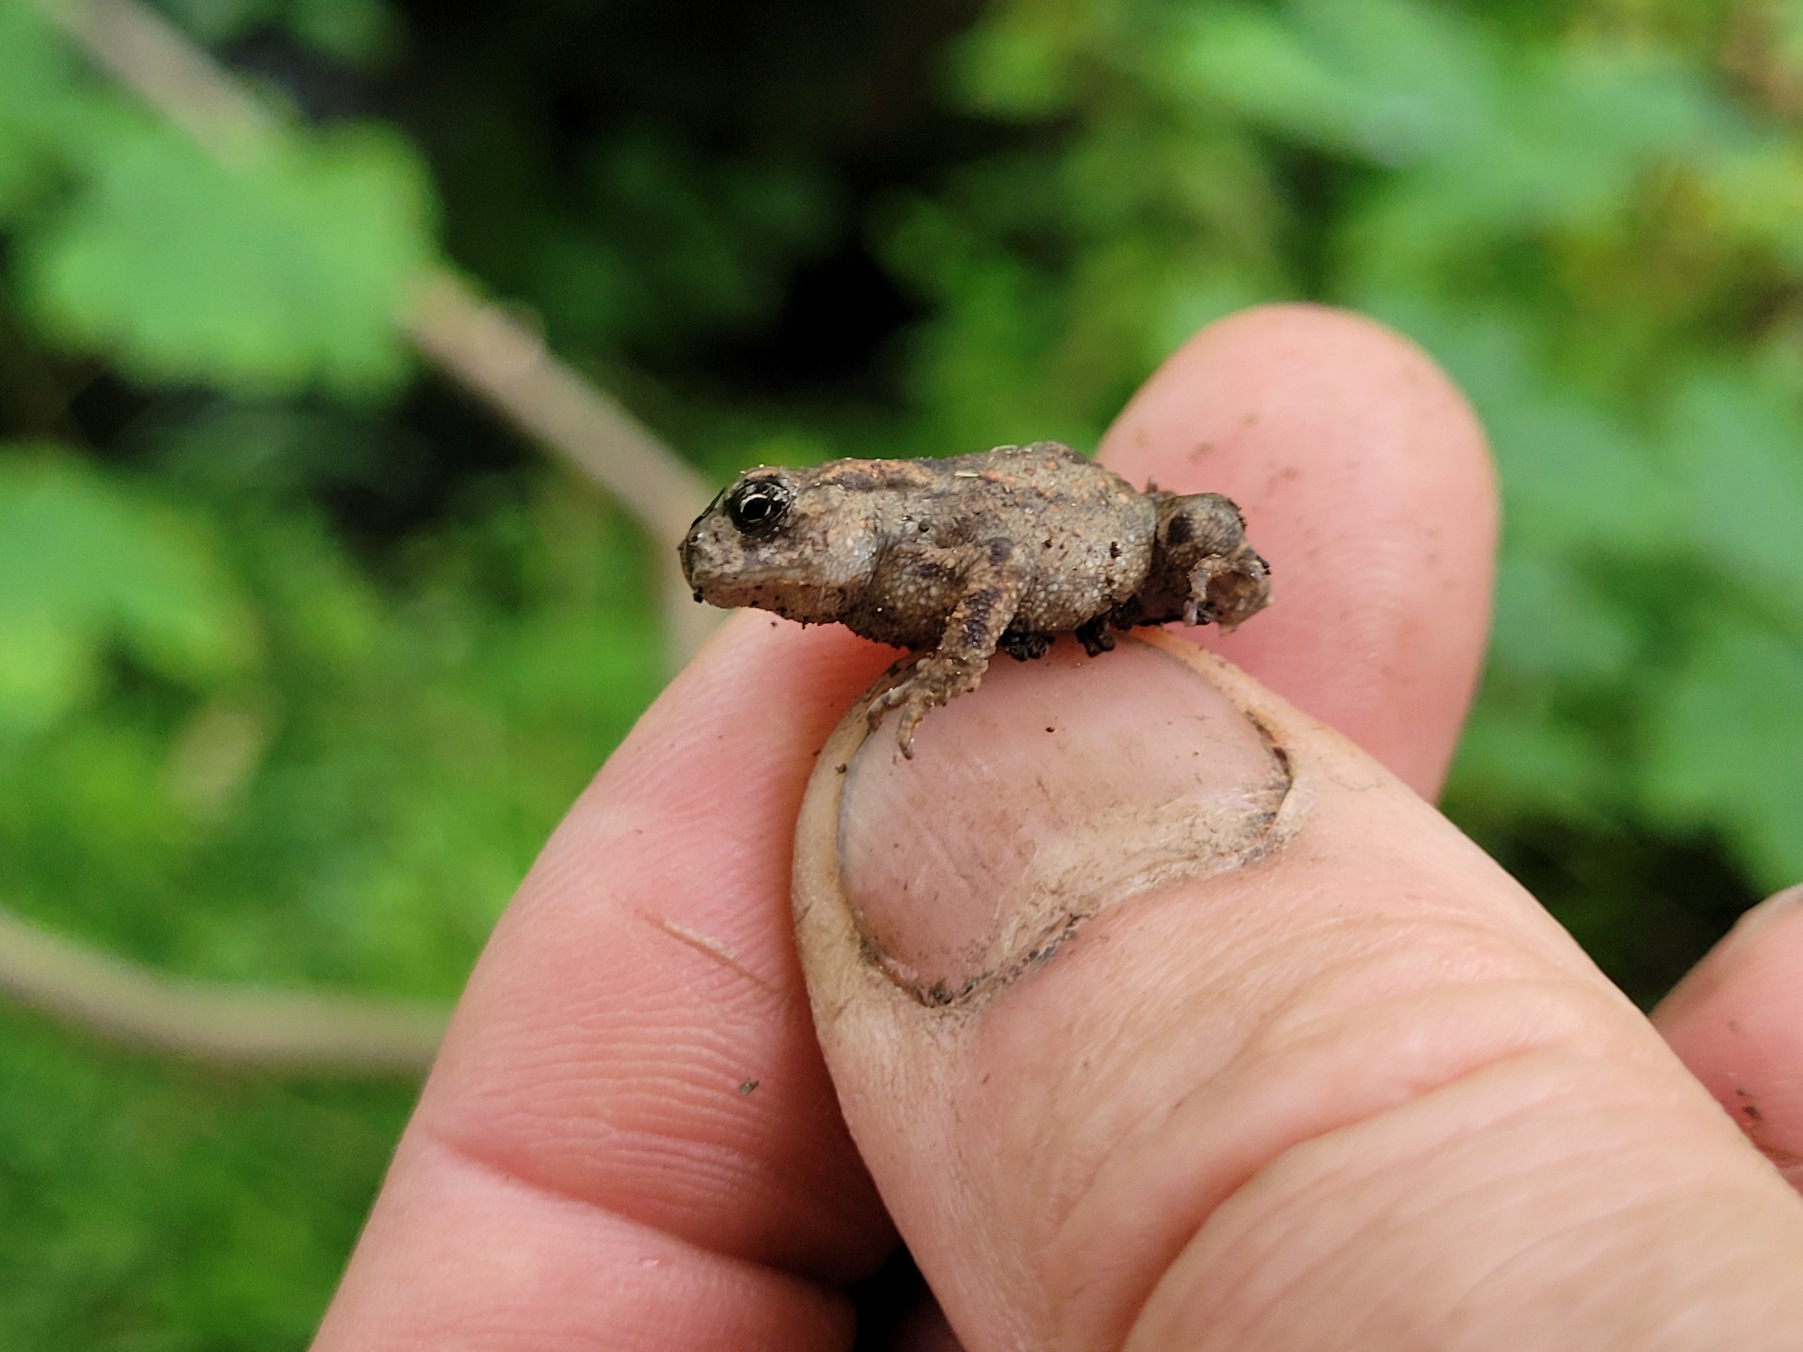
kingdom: Animalia
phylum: Chordata
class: Amphibia
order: Anura
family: Bufonidae
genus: Bufo
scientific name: Bufo bufo
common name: Skrubtudse
